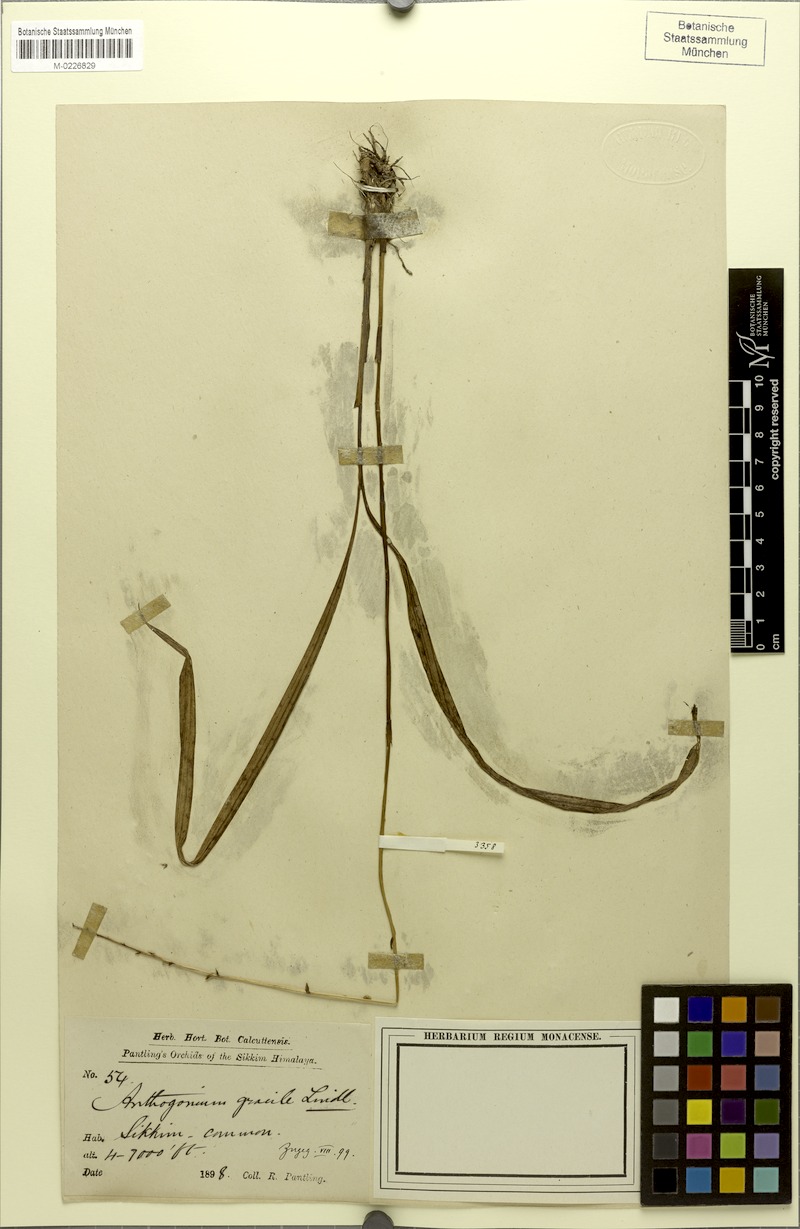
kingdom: Plantae
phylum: Tracheophyta
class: Liliopsida
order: Asparagales
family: Orchidaceae
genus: Anthogonium
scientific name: Anthogonium gracile
